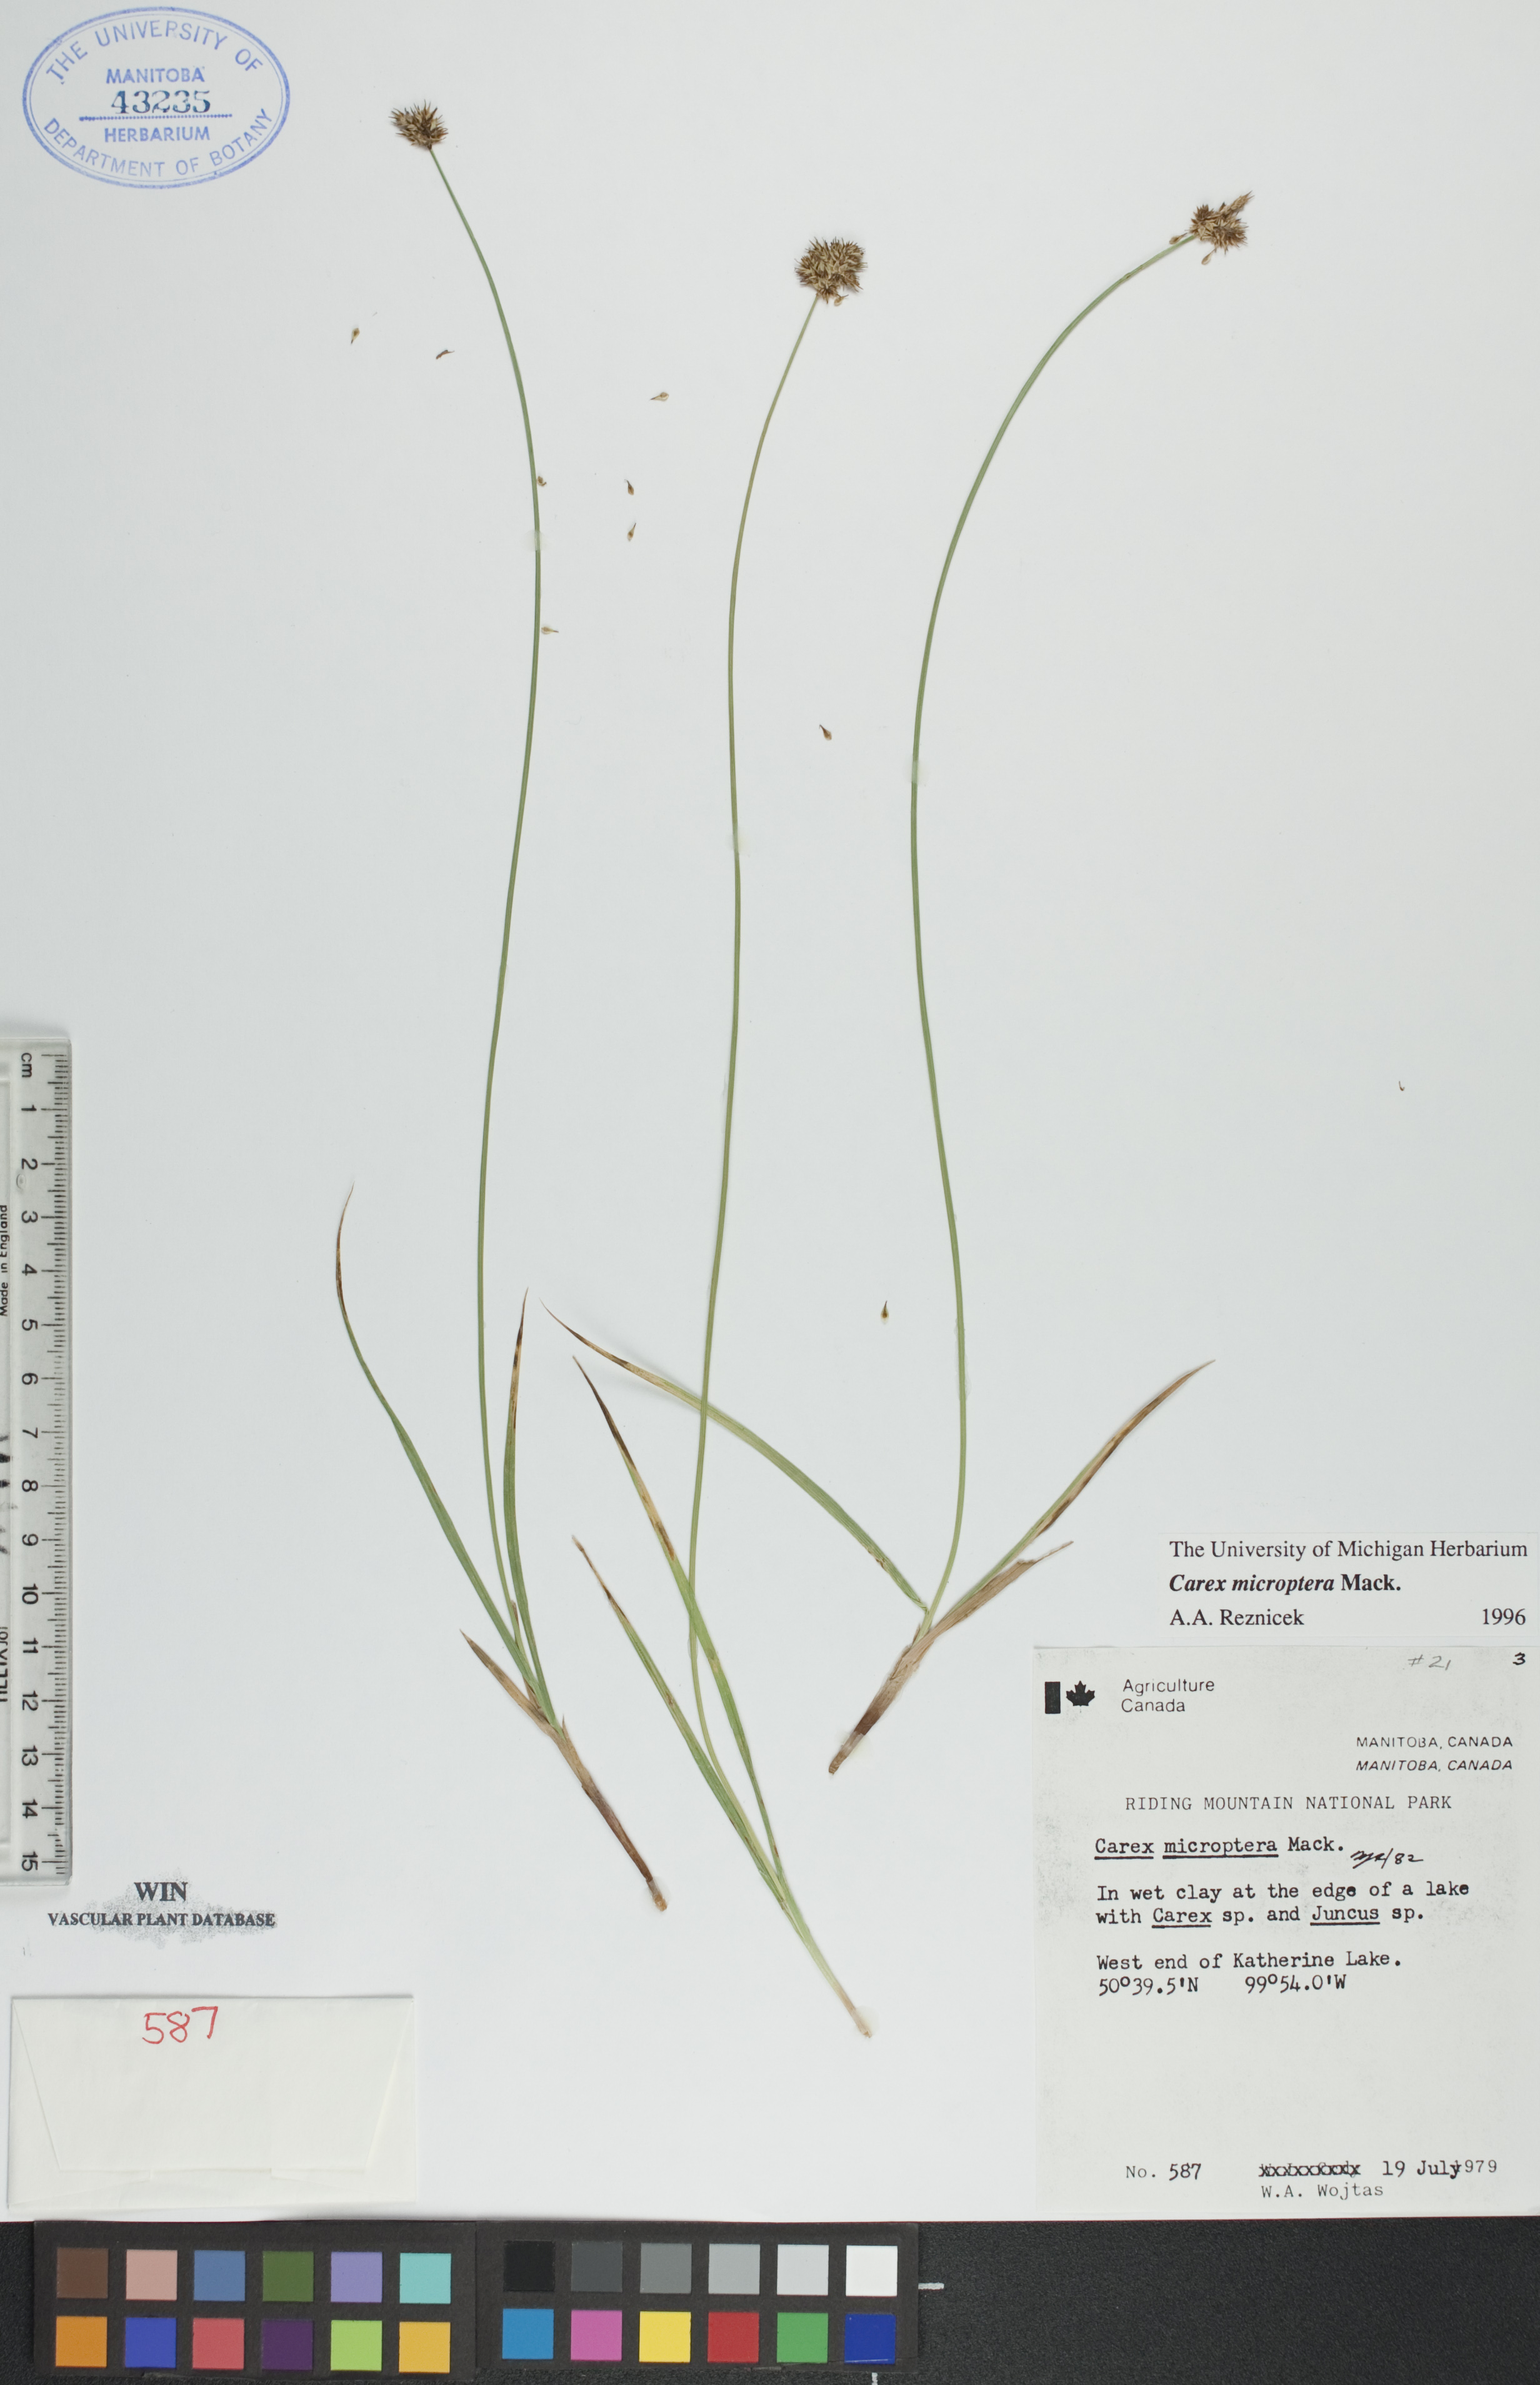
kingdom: Plantae
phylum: Tracheophyta
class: Liliopsida
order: Poales
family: Cyperaceae
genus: Carex
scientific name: Carex microptera
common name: Oval-headed sedge
